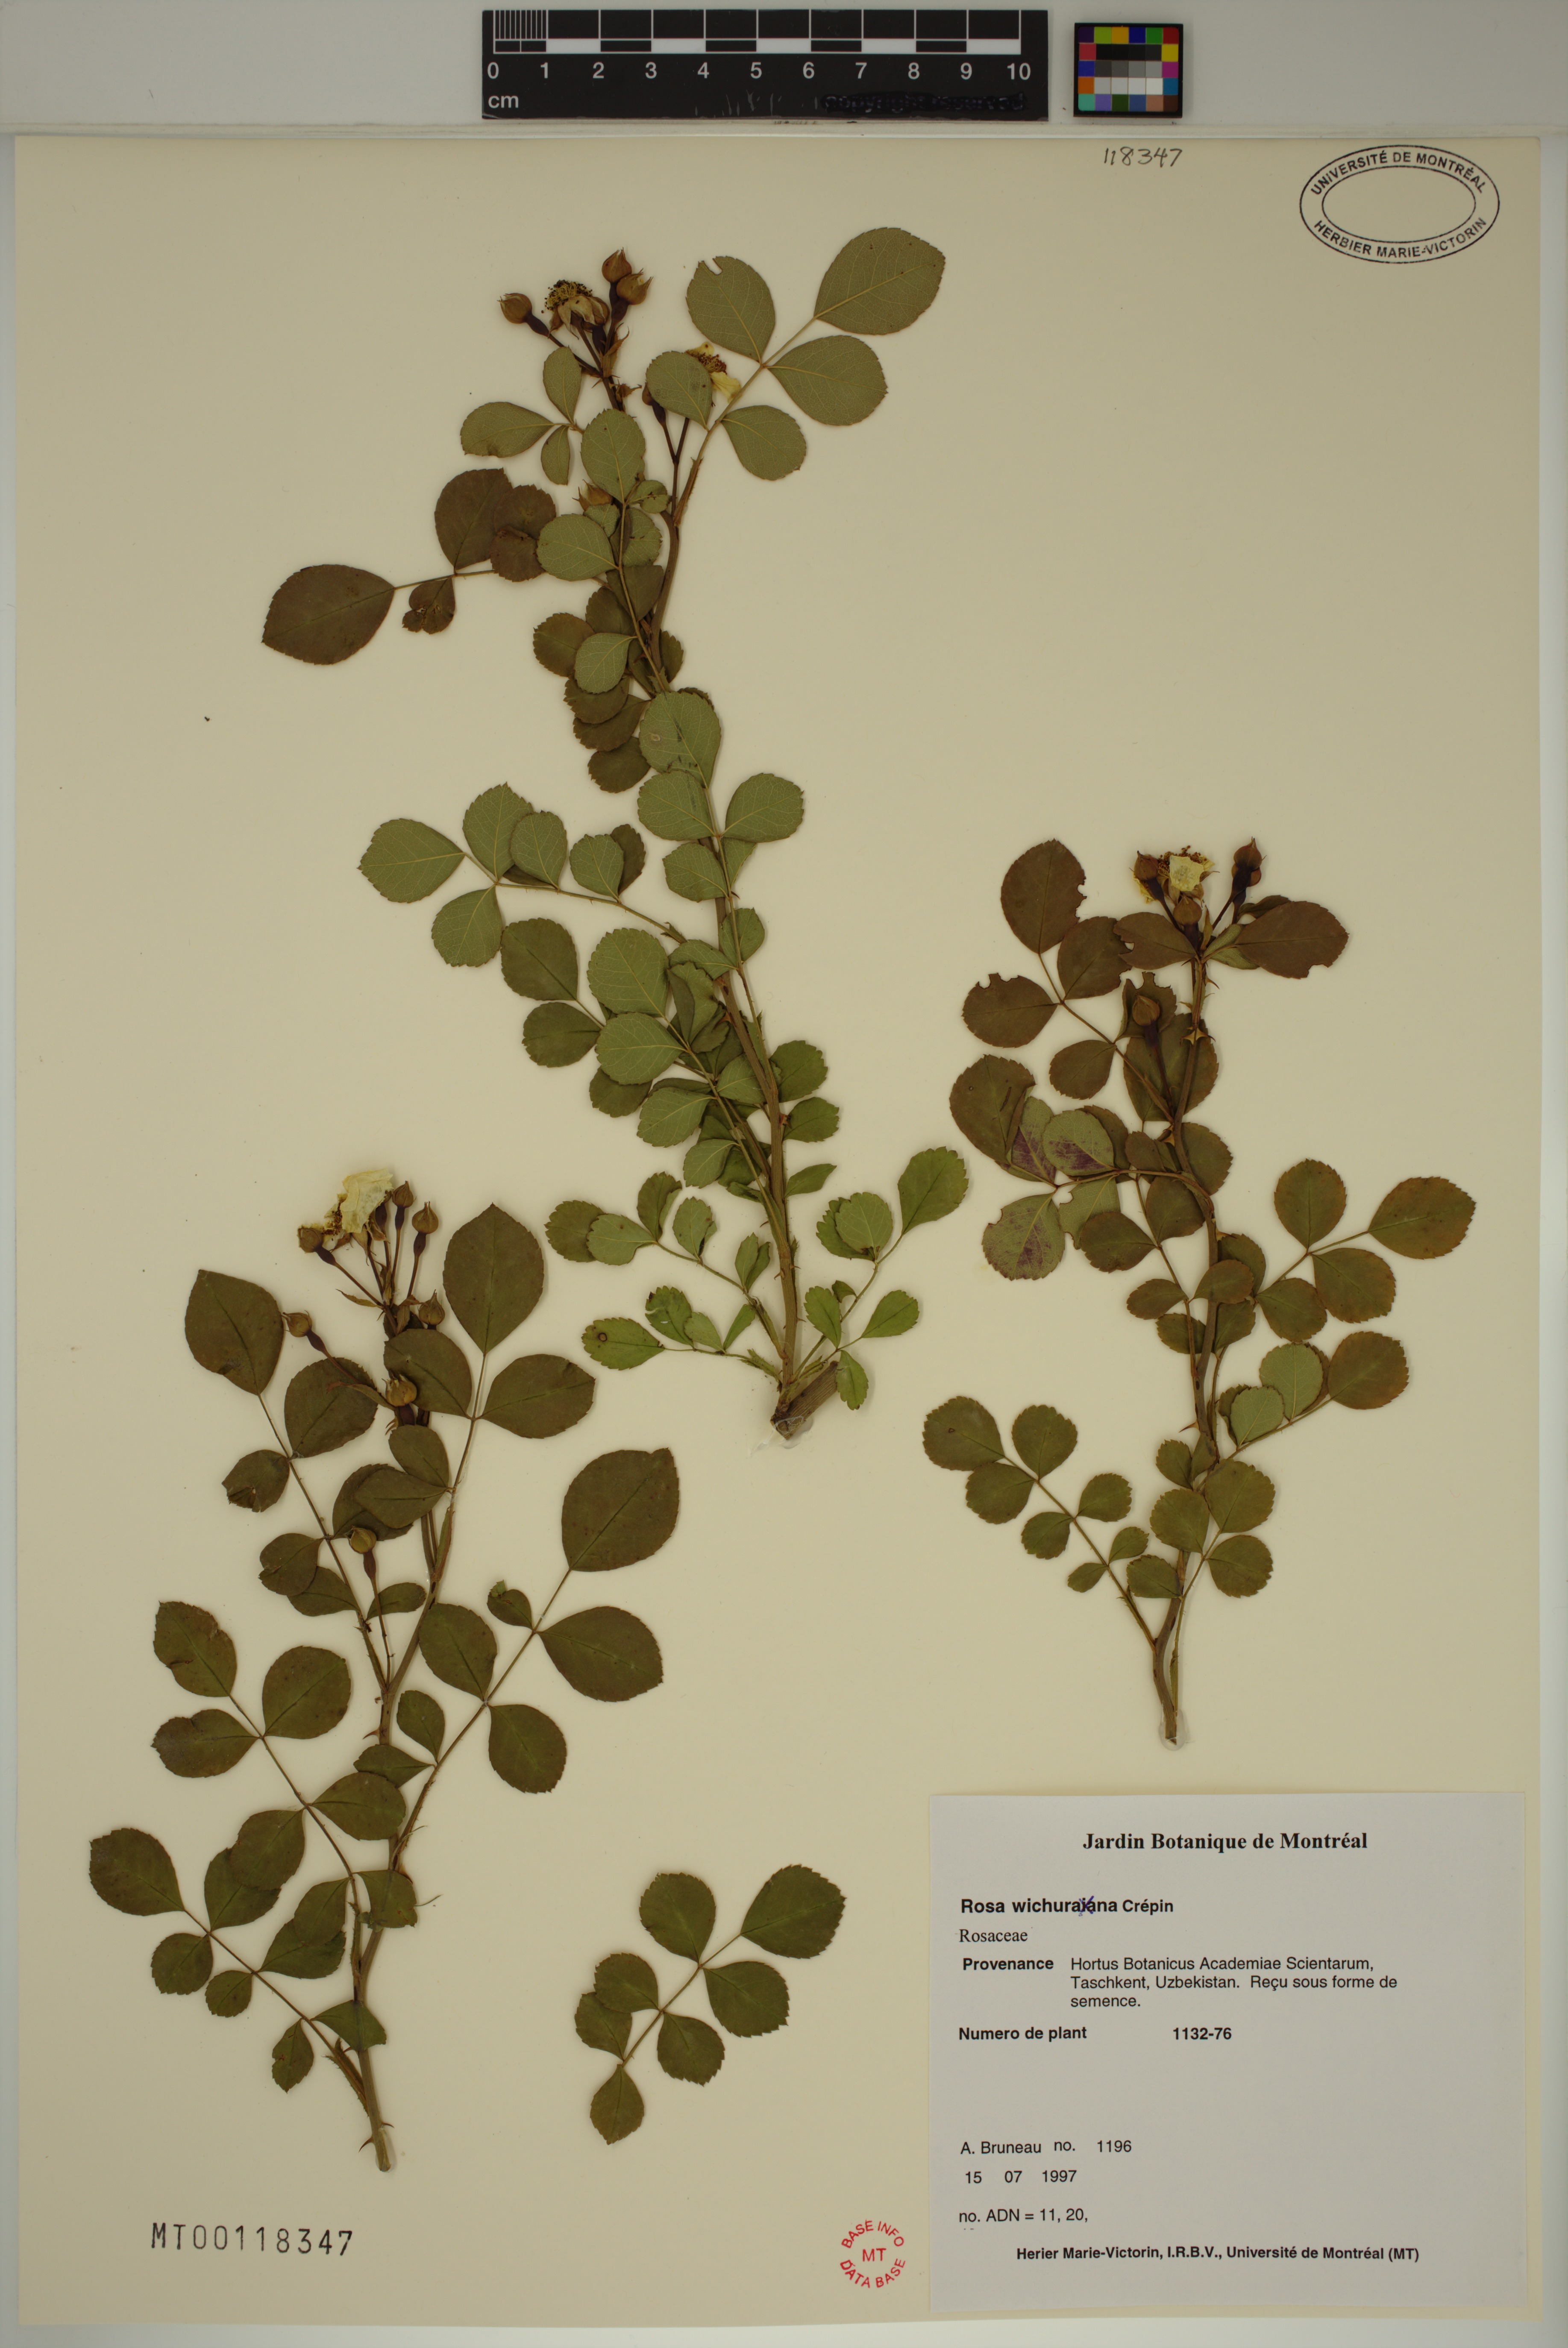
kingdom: Plantae
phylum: Tracheophyta
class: Magnoliopsida
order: Rosales
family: Rosaceae
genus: Rosa
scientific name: Rosa luciae
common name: Memorial rose
